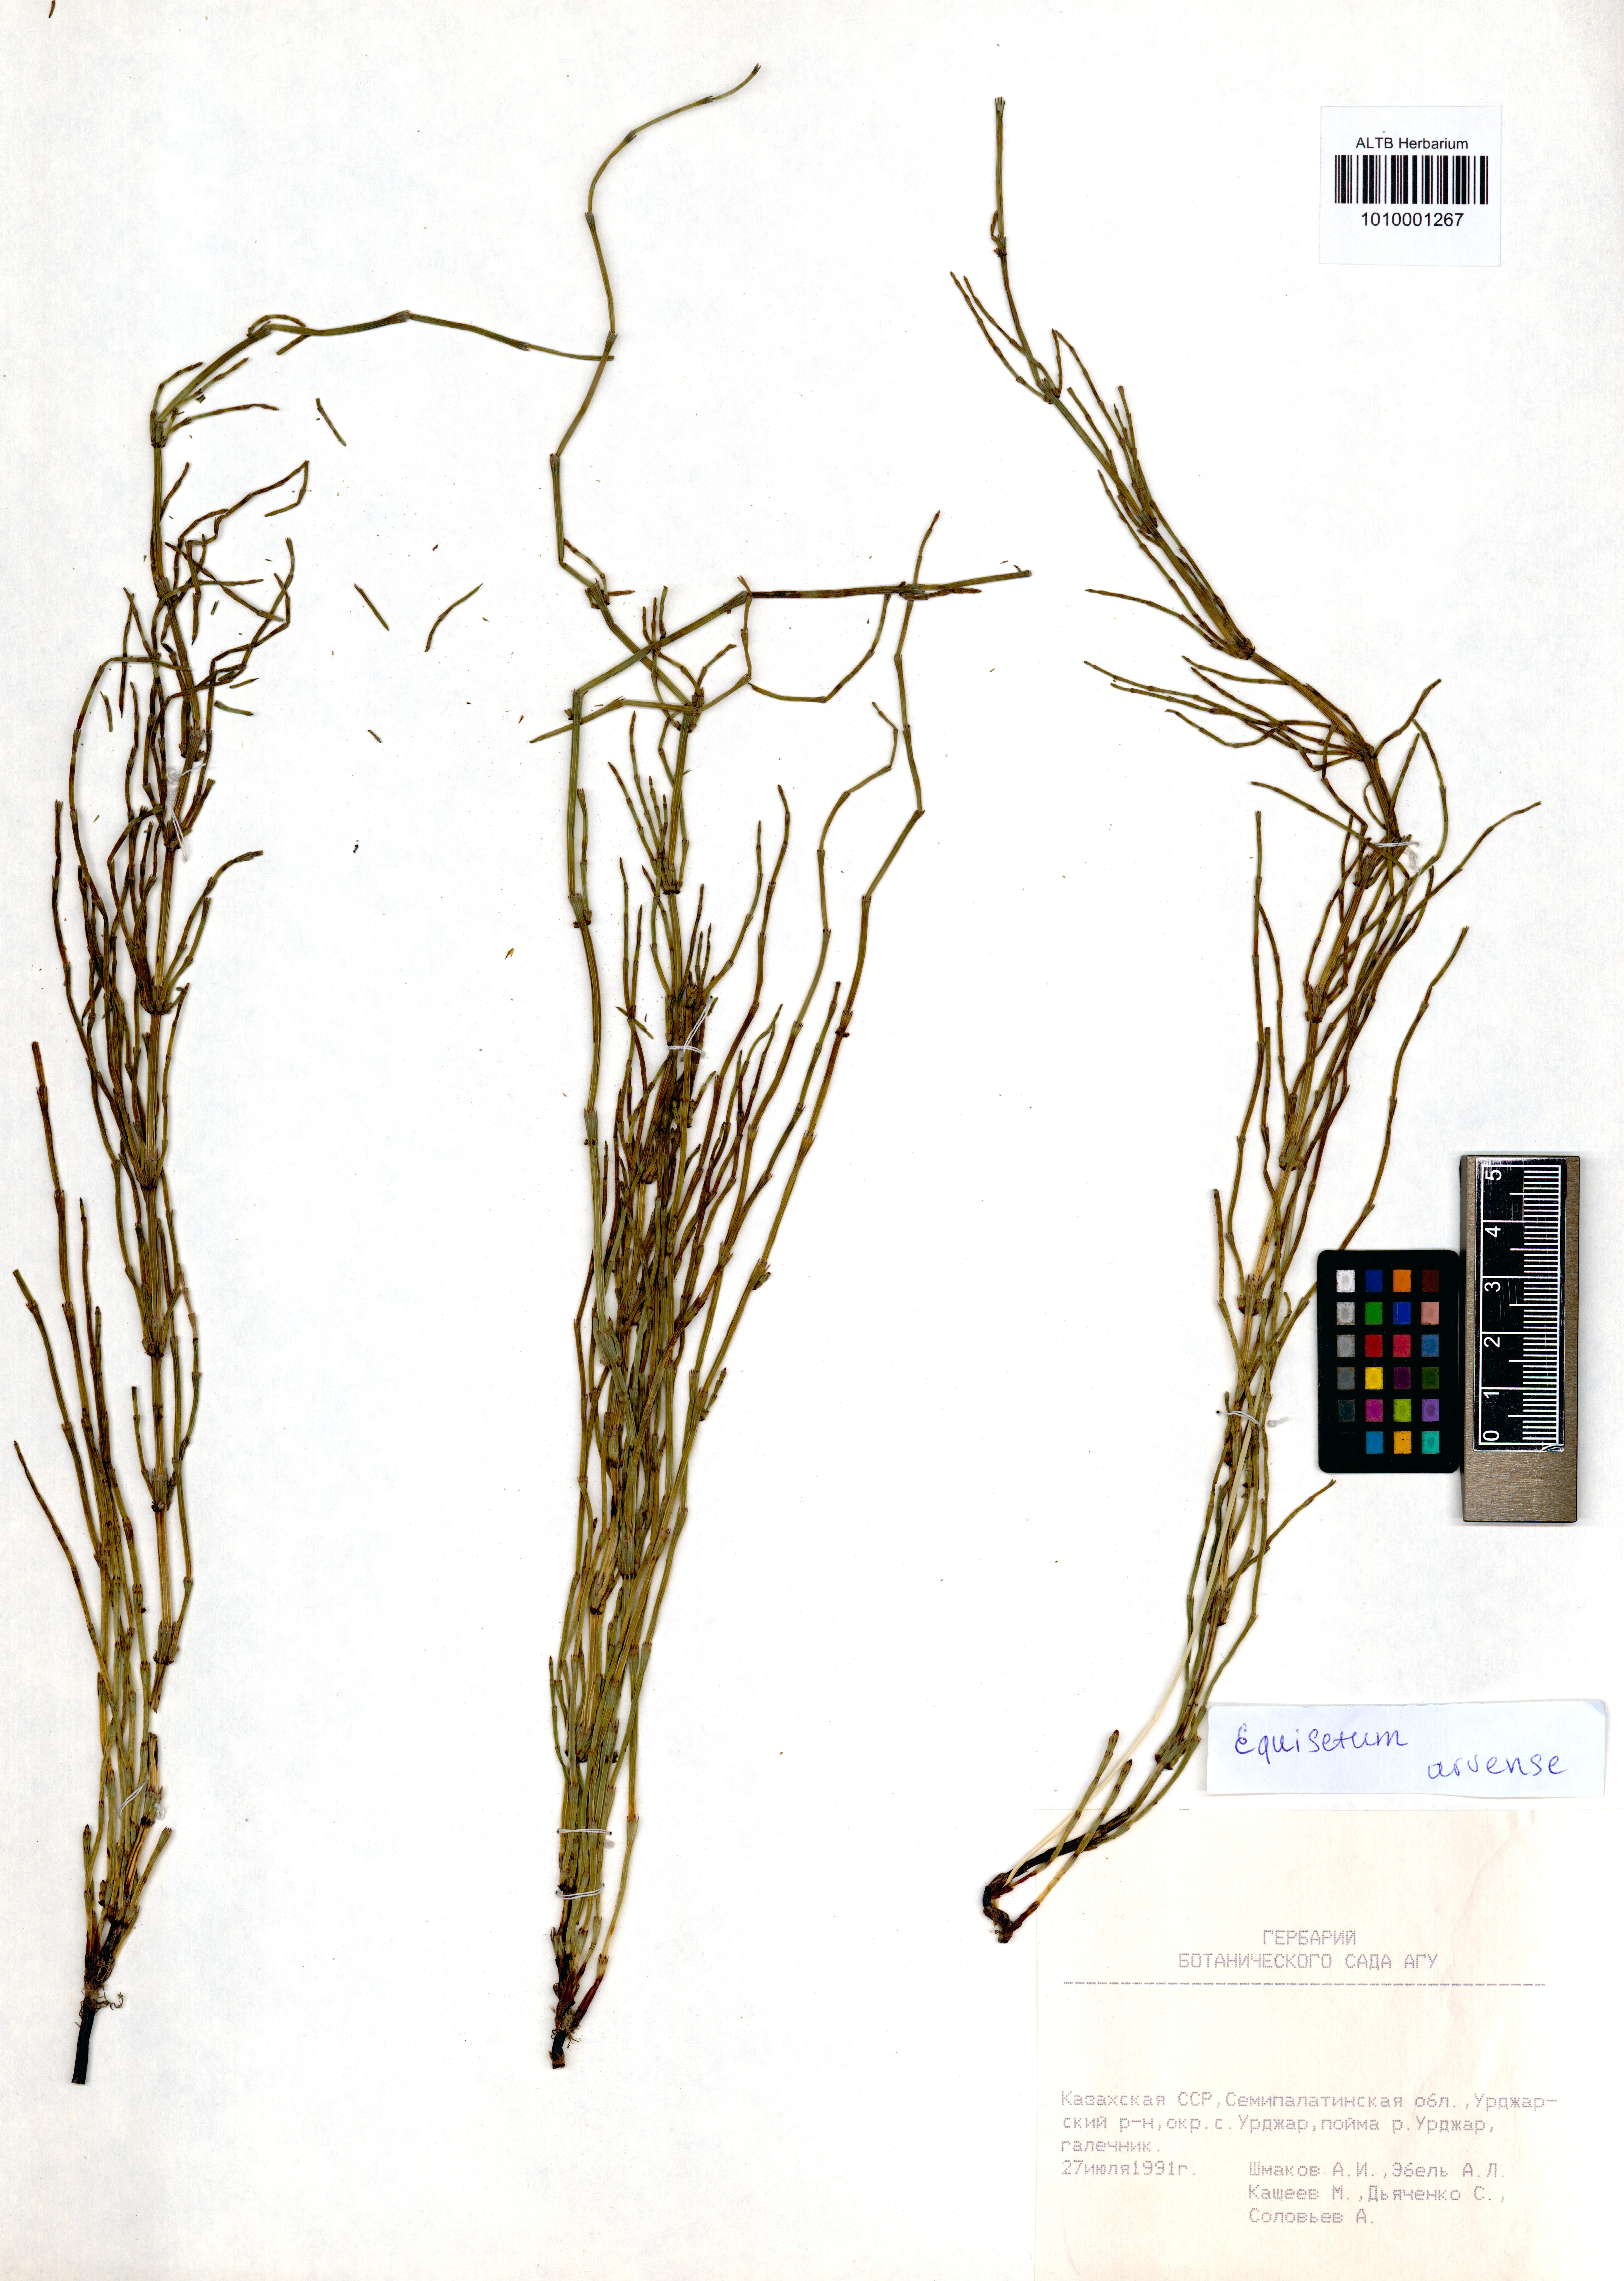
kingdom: Plantae
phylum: Tracheophyta
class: Polypodiopsida
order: Equisetales
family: Equisetaceae
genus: Equisetum
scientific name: Equisetum arvense
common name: Field horsetail
